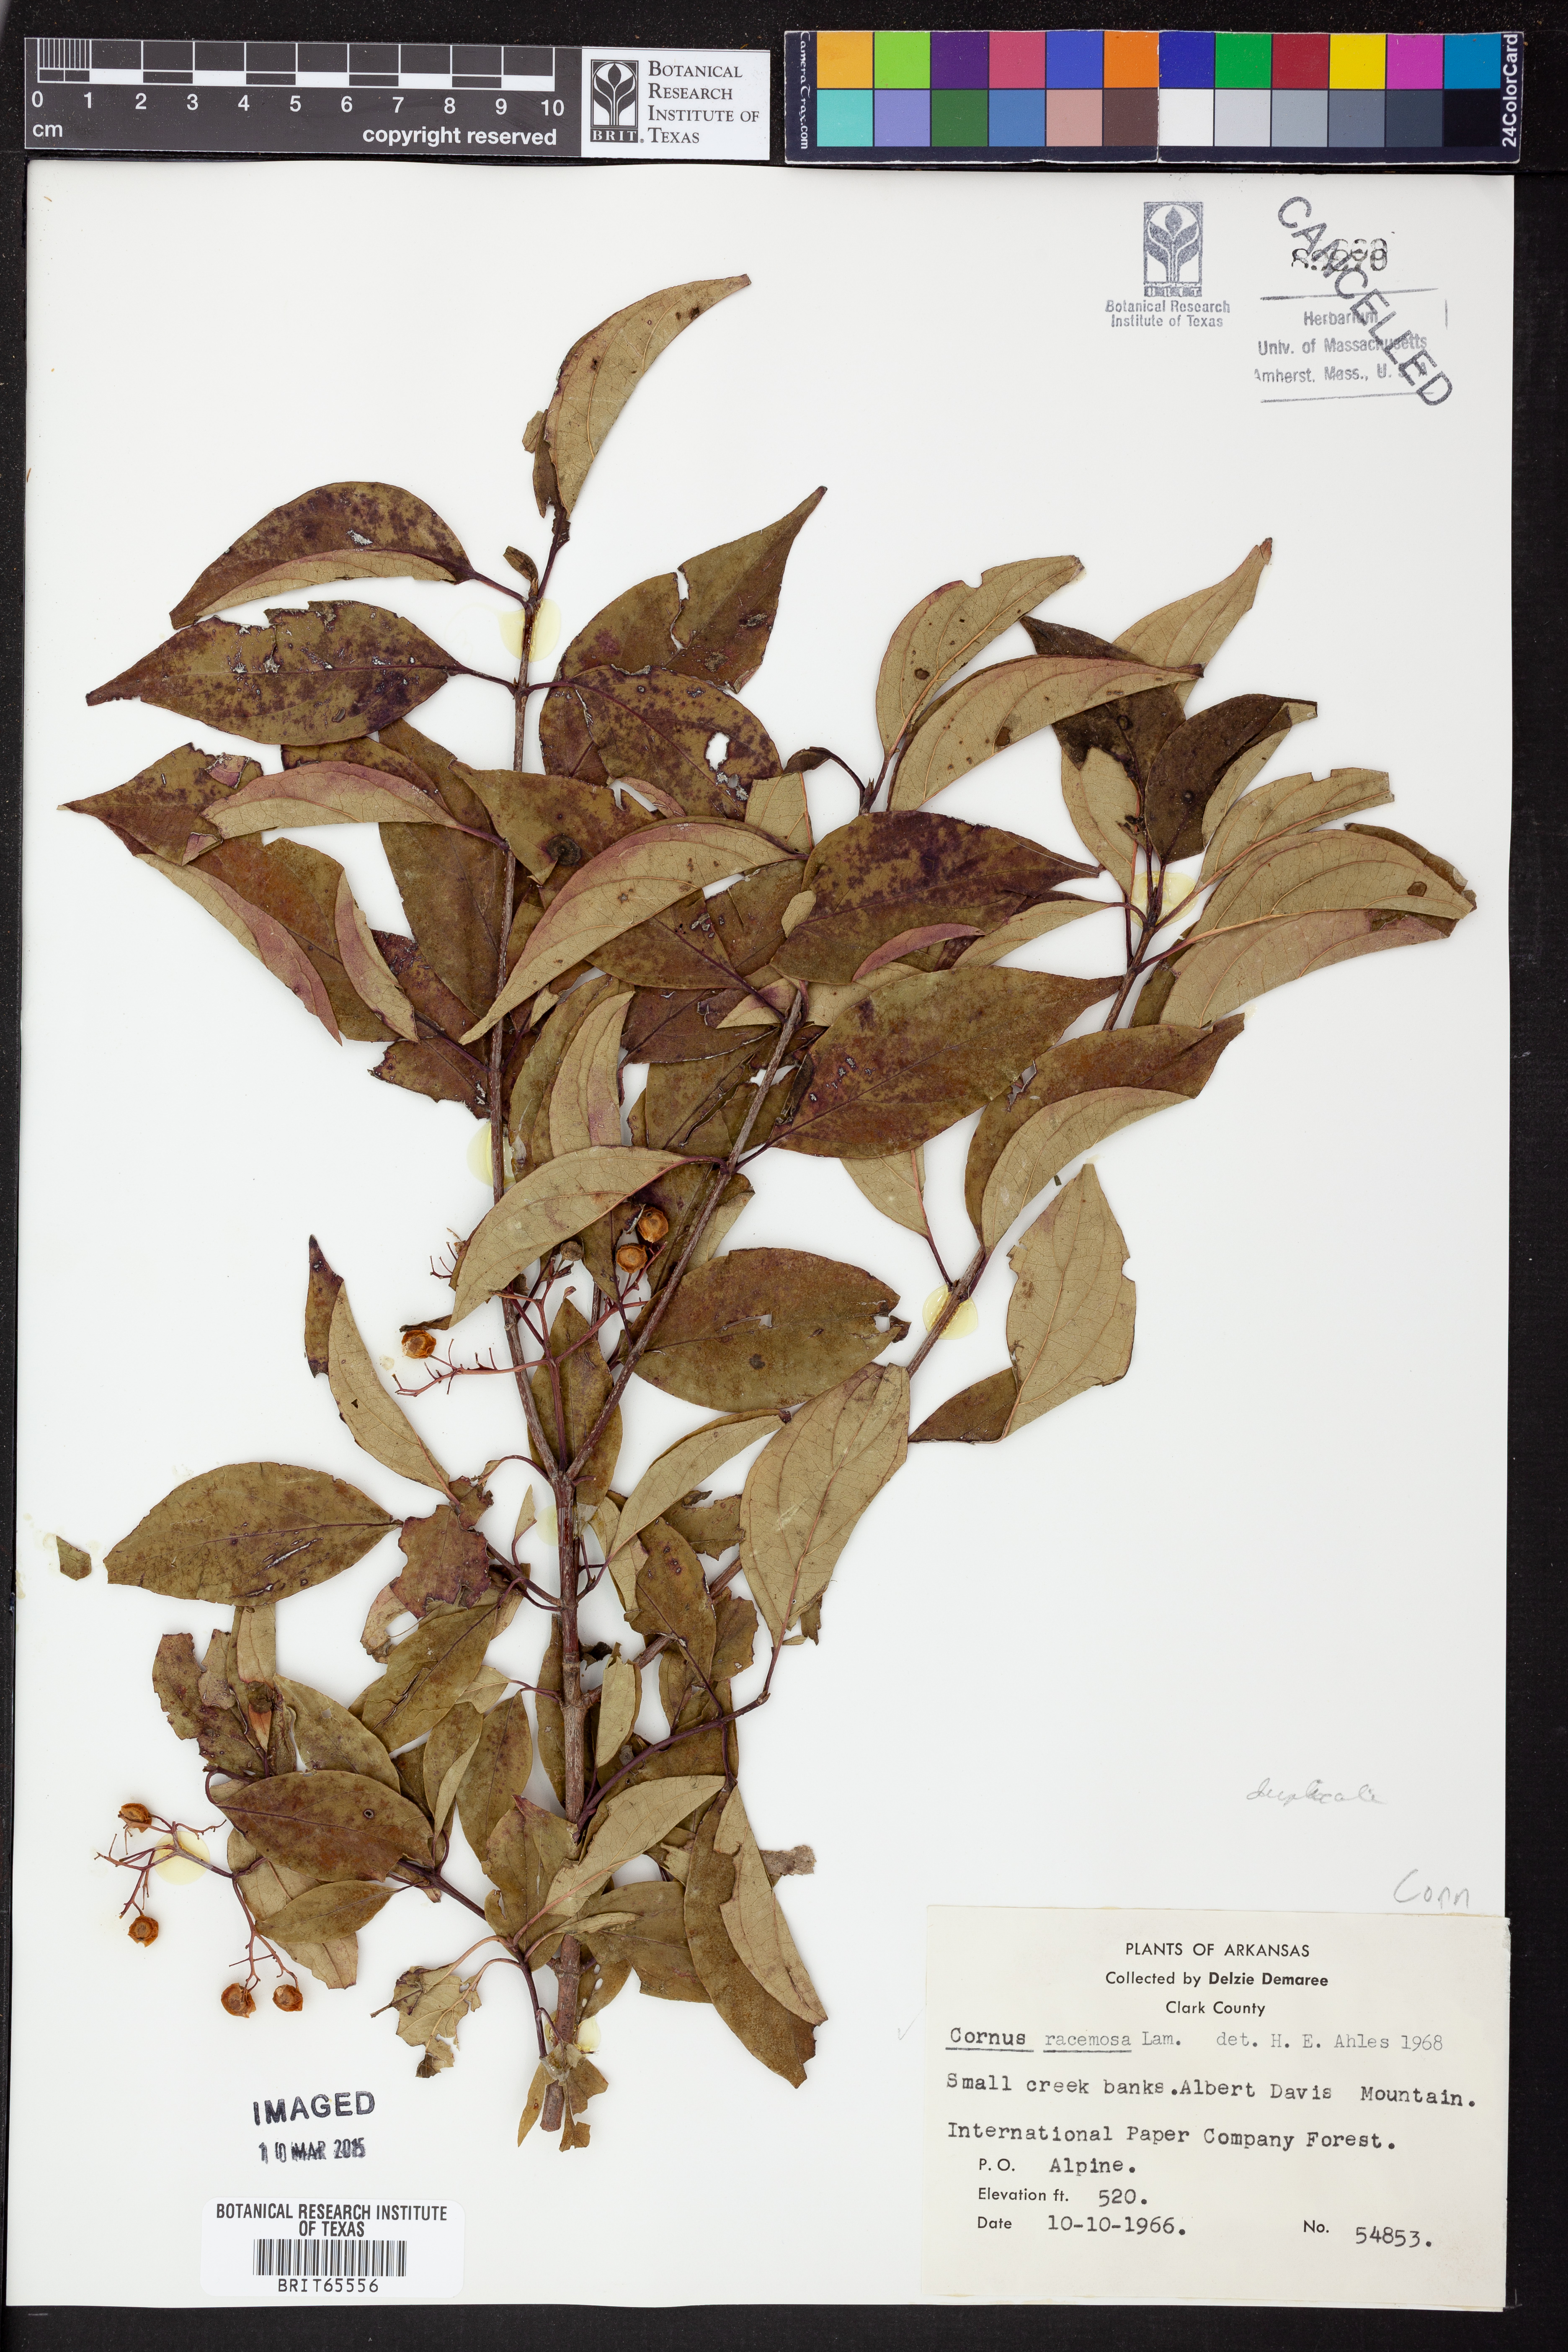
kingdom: Plantae
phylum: Tracheophyta
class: Magnoliopsida
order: Cornales
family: Cornaceae
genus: Cornus
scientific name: Cornus racemosa
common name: Panicled dogwood
